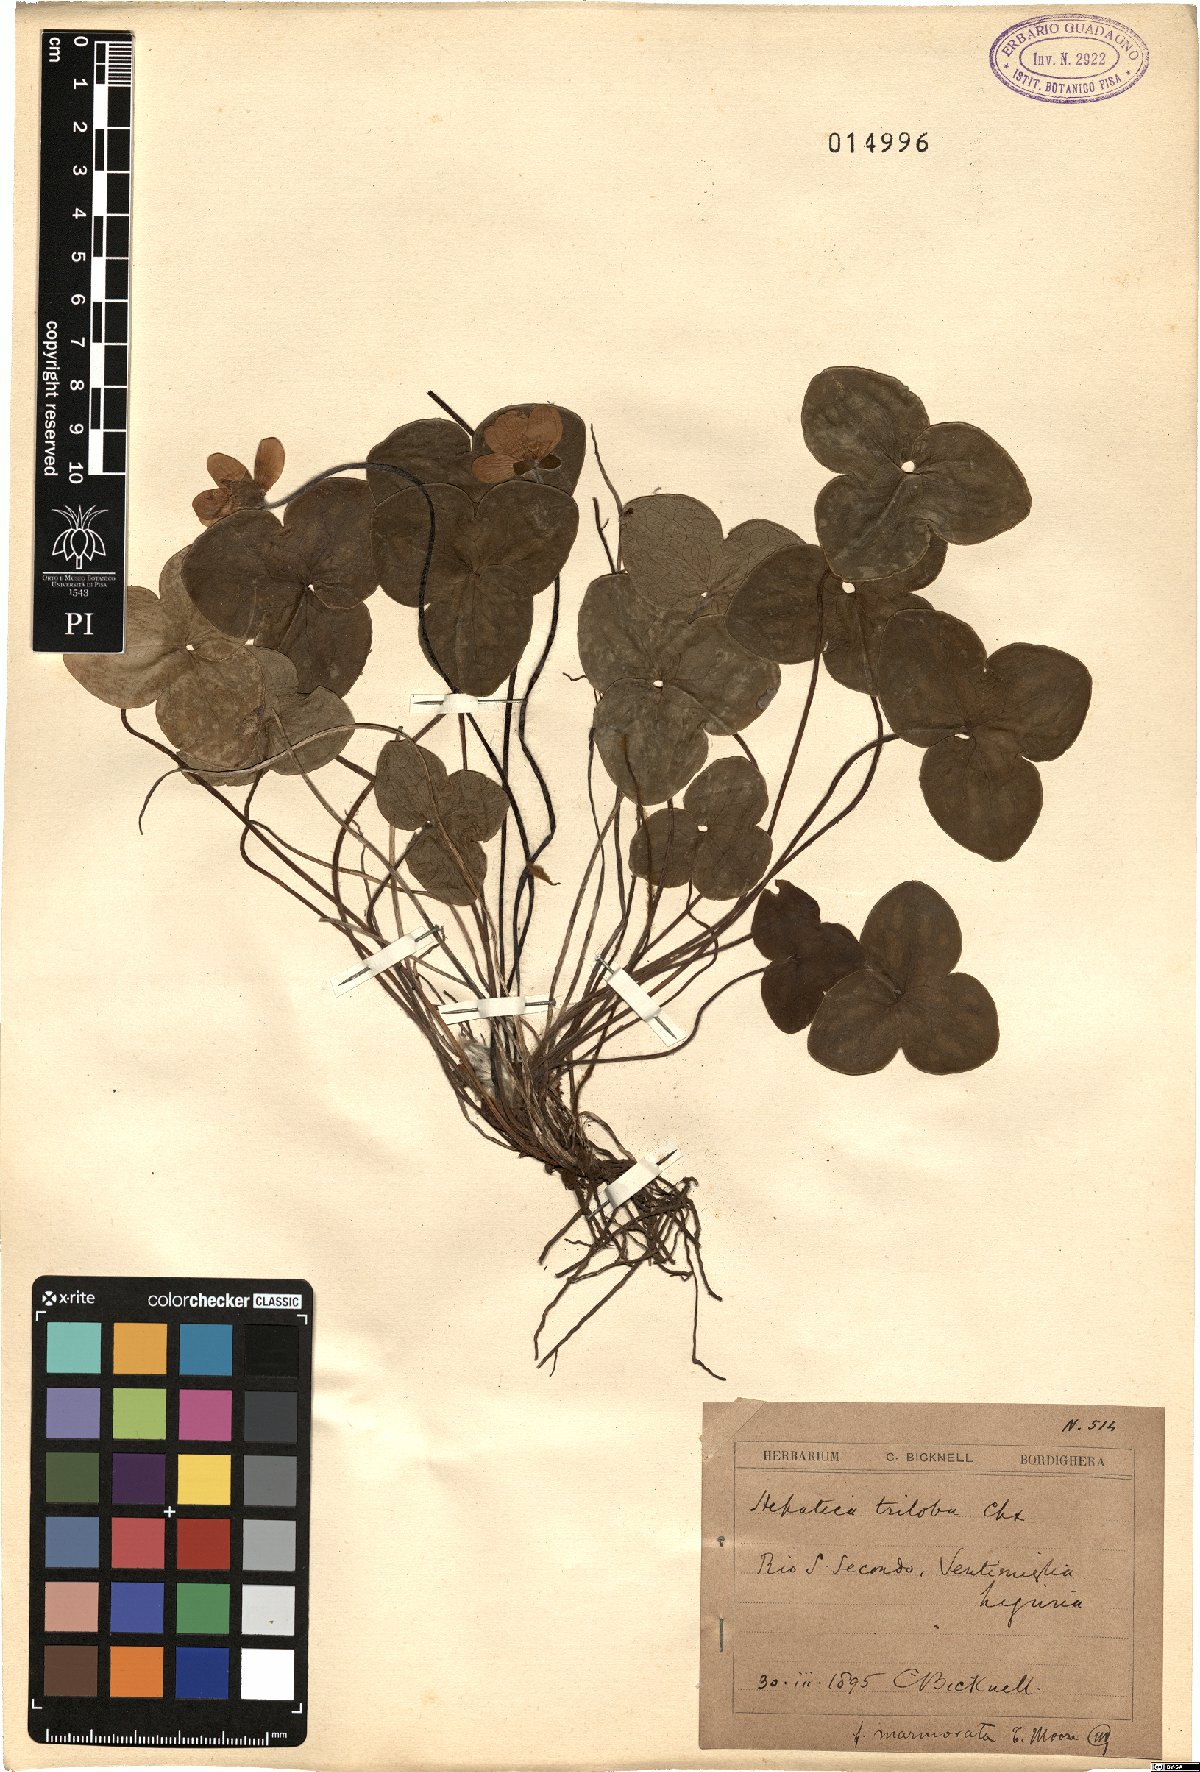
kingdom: Plantae
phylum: Tracheophyta
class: Magnoliopsida
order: Ranunculales
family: Ranunculaceae
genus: Hepatica
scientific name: Hepatica nobilis
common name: Liverleaf
